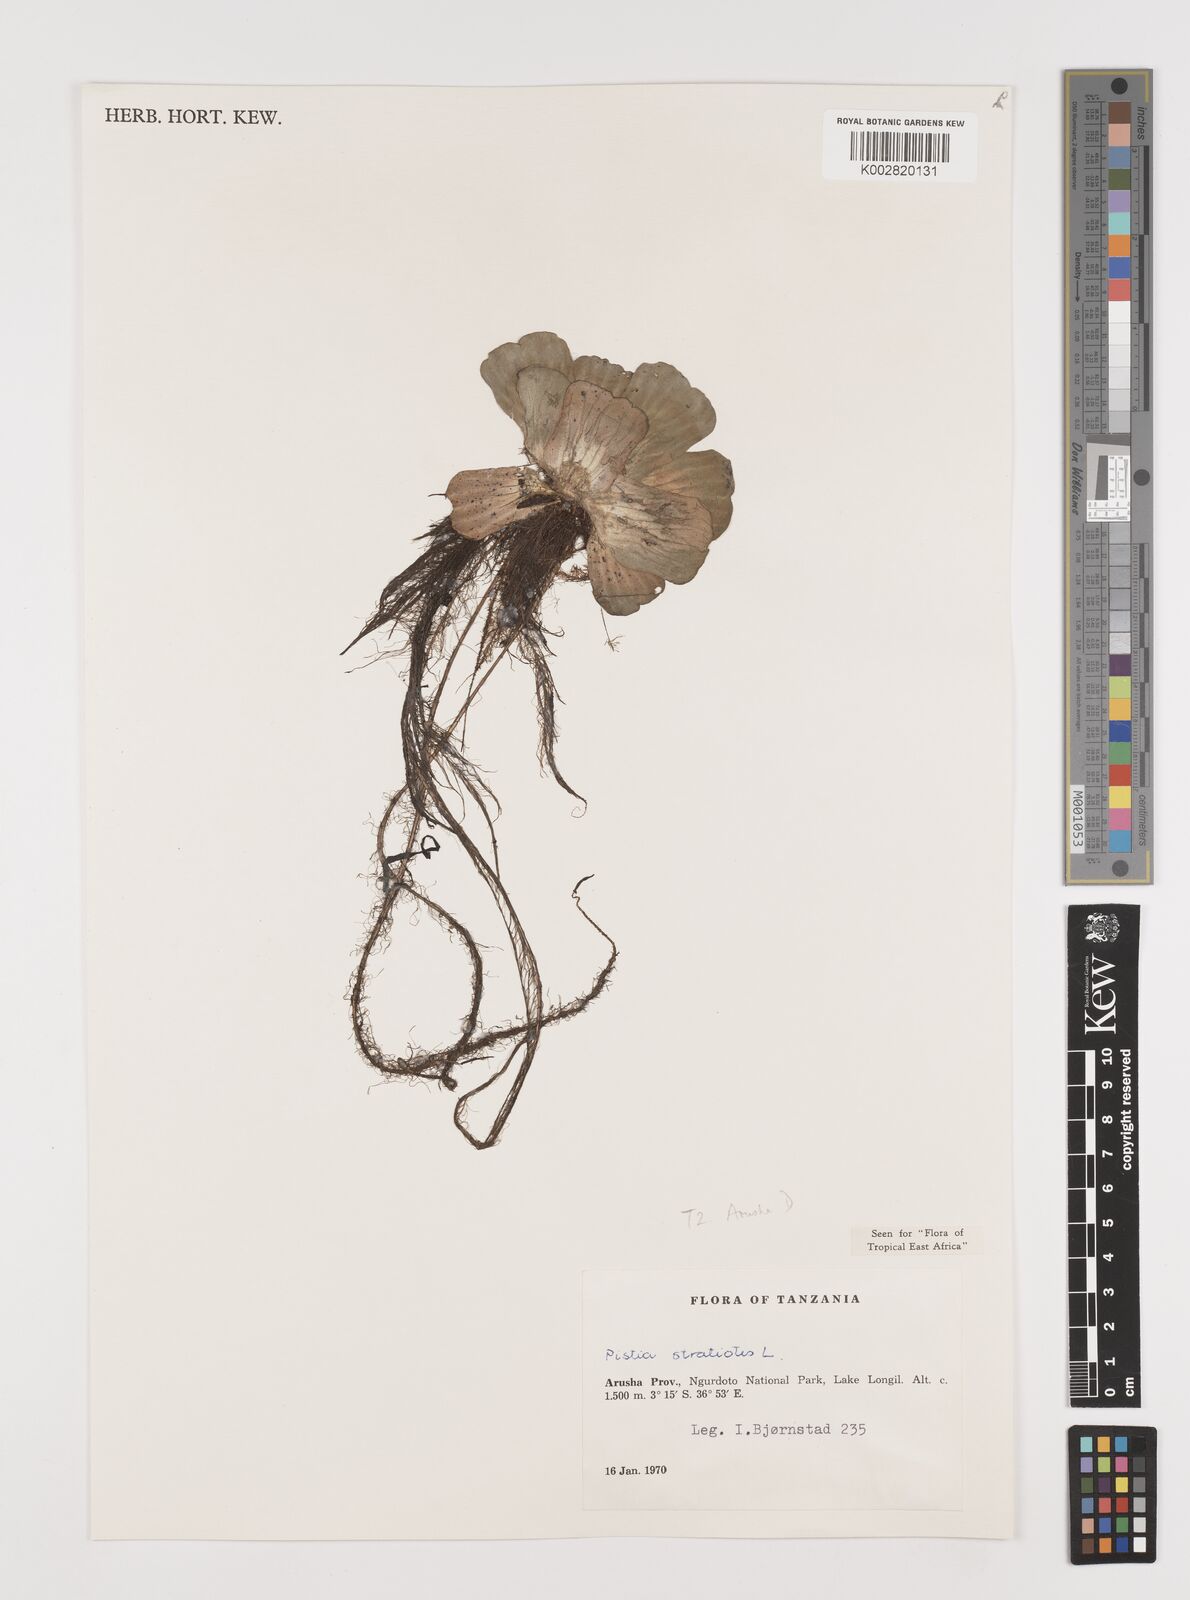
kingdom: Plantae
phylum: Tracheophyta
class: Liliopsida
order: Alismatales
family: Araceae
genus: Pistia
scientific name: Pistia stratiotes
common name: Water lettuce
